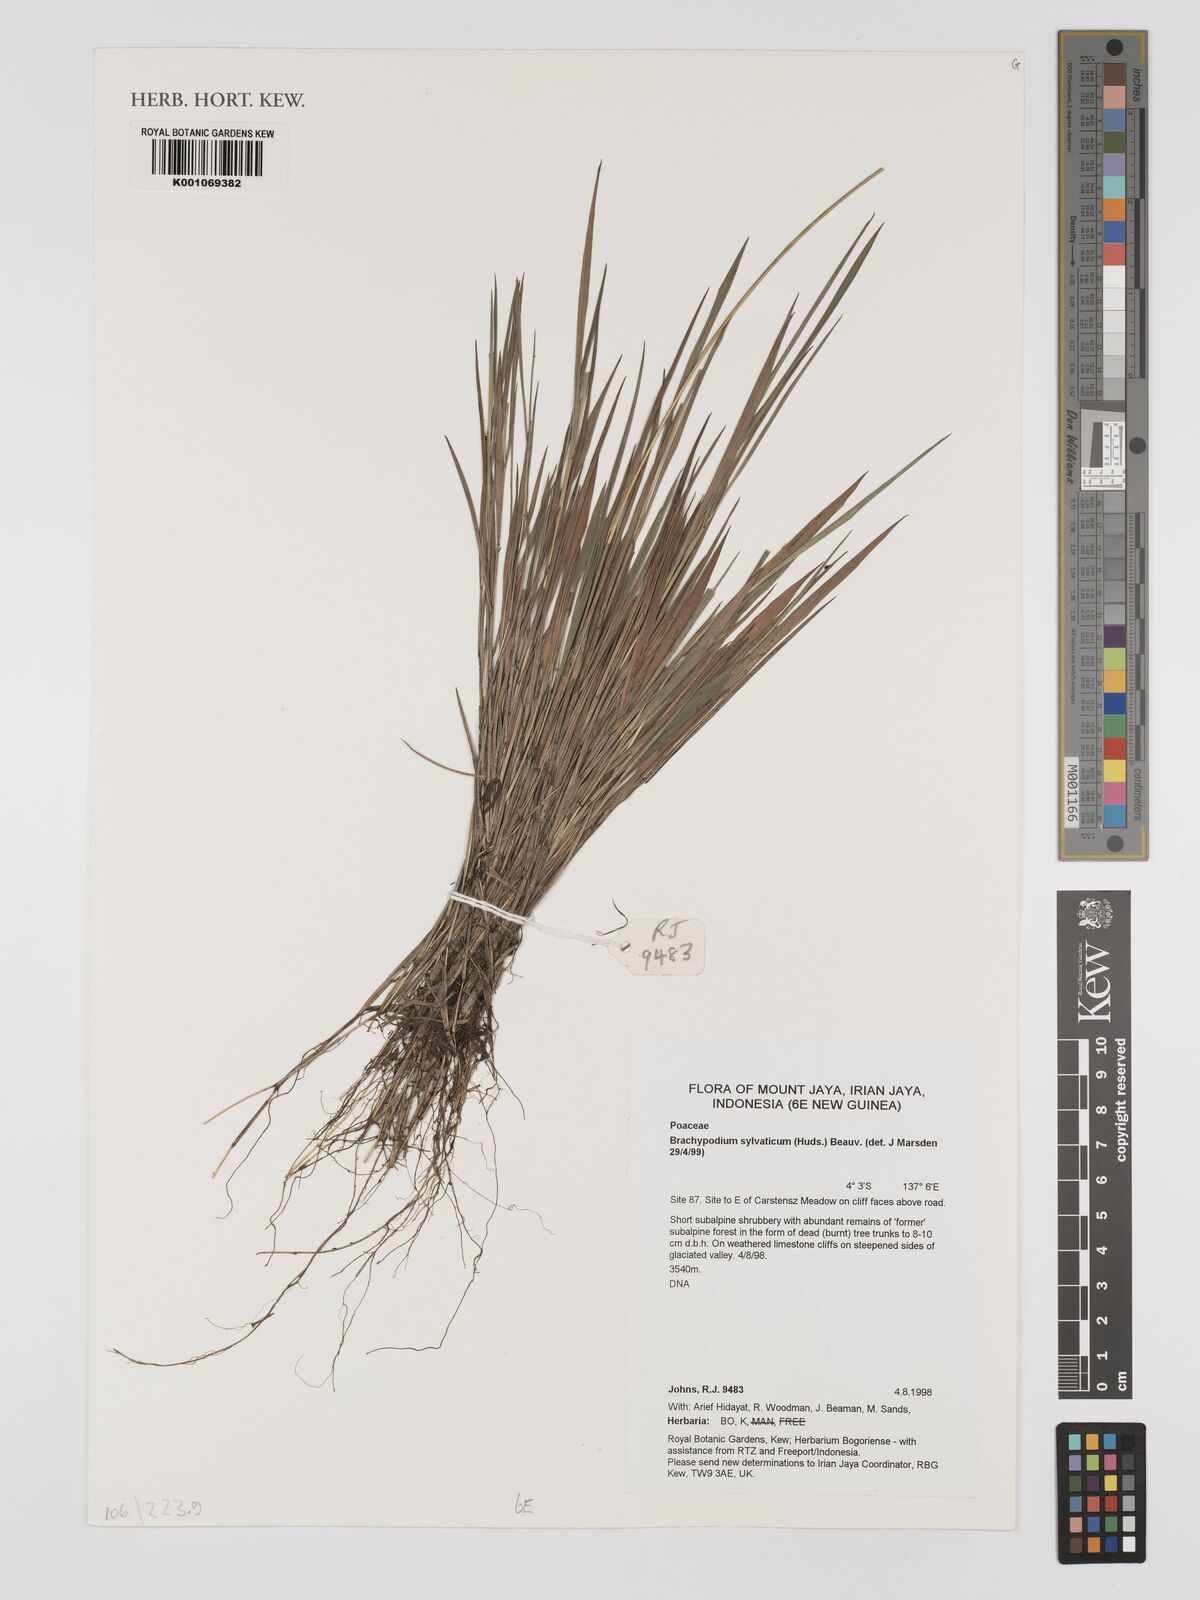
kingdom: Plantae
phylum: Tracheophyta
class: Magnoliopsida
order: Fabales
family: Fabaceae
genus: Pericopsis
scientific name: Pericopsis
